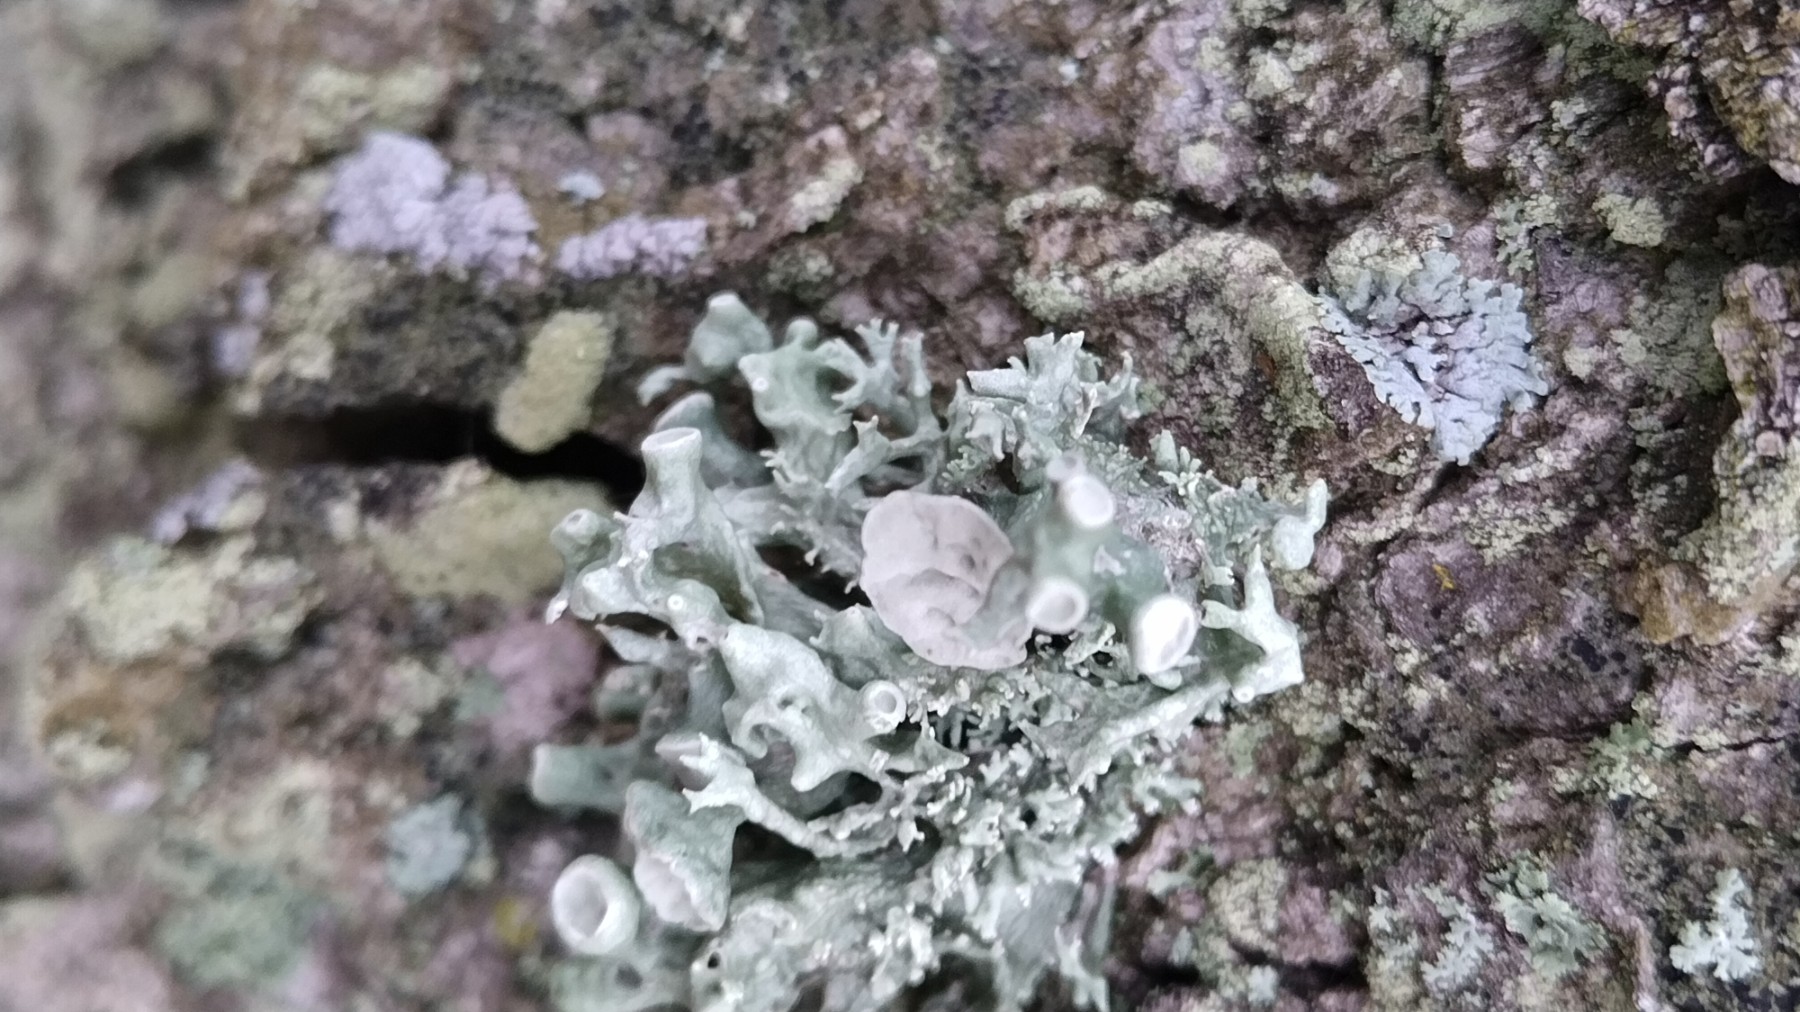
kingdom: Fungi
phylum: Ascomycota
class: Lecanoromycetes
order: Lecanorales
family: Ramalinaceae
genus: Ramalina
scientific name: Ramalina fastigiata
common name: tue-grenlav
